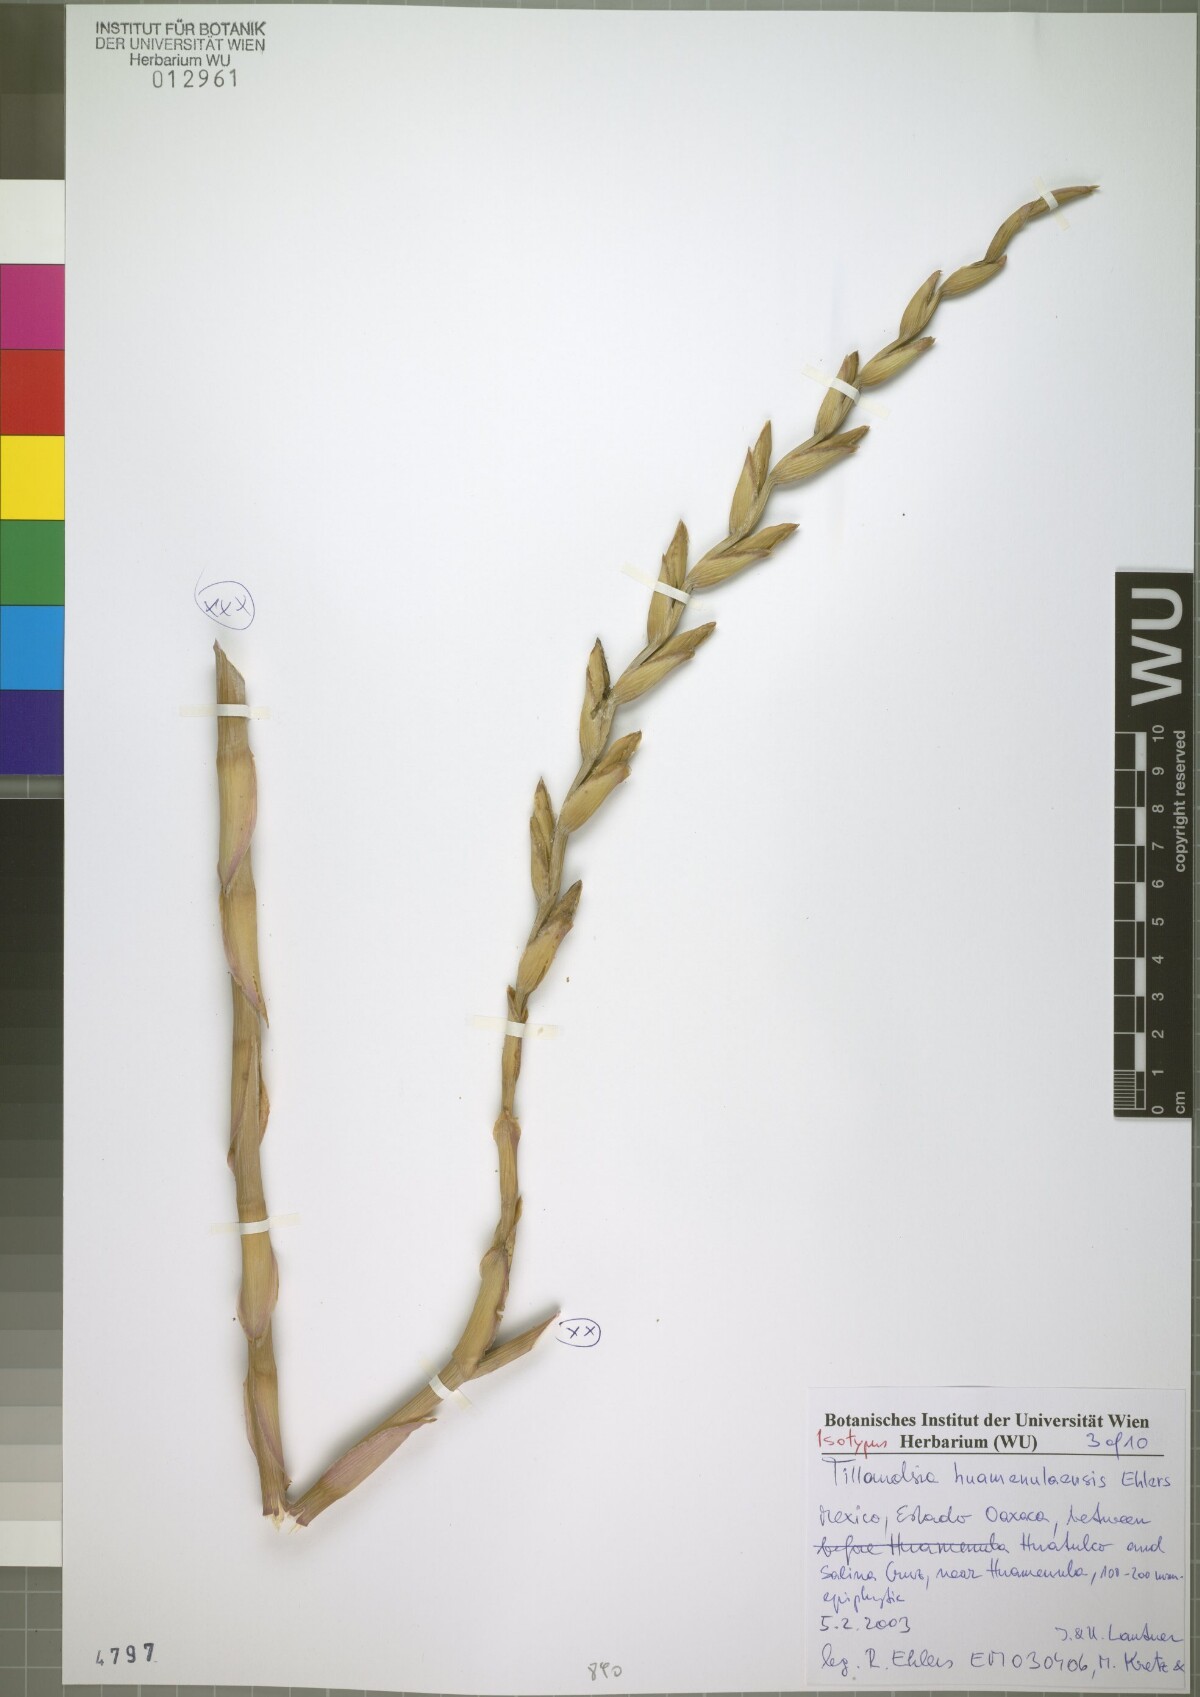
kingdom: Plantae
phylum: Tracheophyta
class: Liliopsida
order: Poales
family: Bromeliaceae
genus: Tillandsia
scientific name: Tillandsia huamenulaensis
